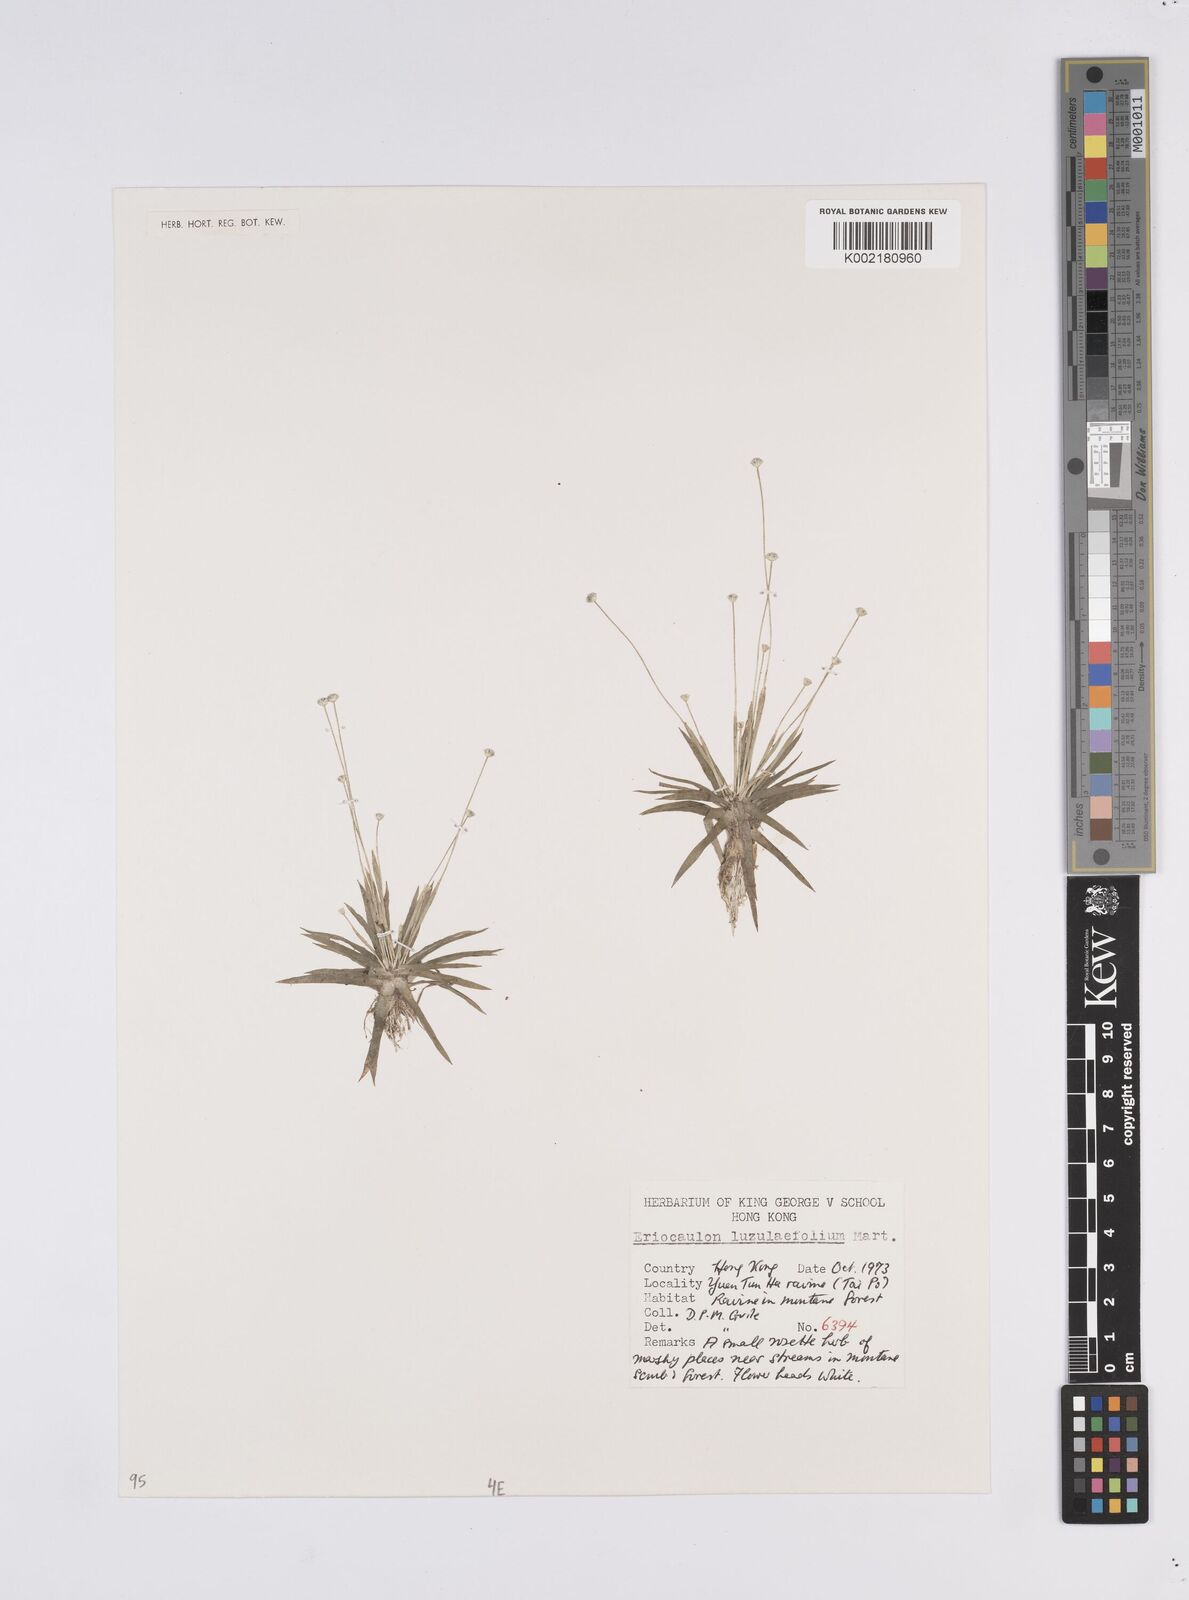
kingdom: Plantae
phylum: Tracheophyta
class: Liliopsida
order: Poales
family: Eriocaulaceae
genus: Eriocaulon
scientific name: Eriocaulon australe
